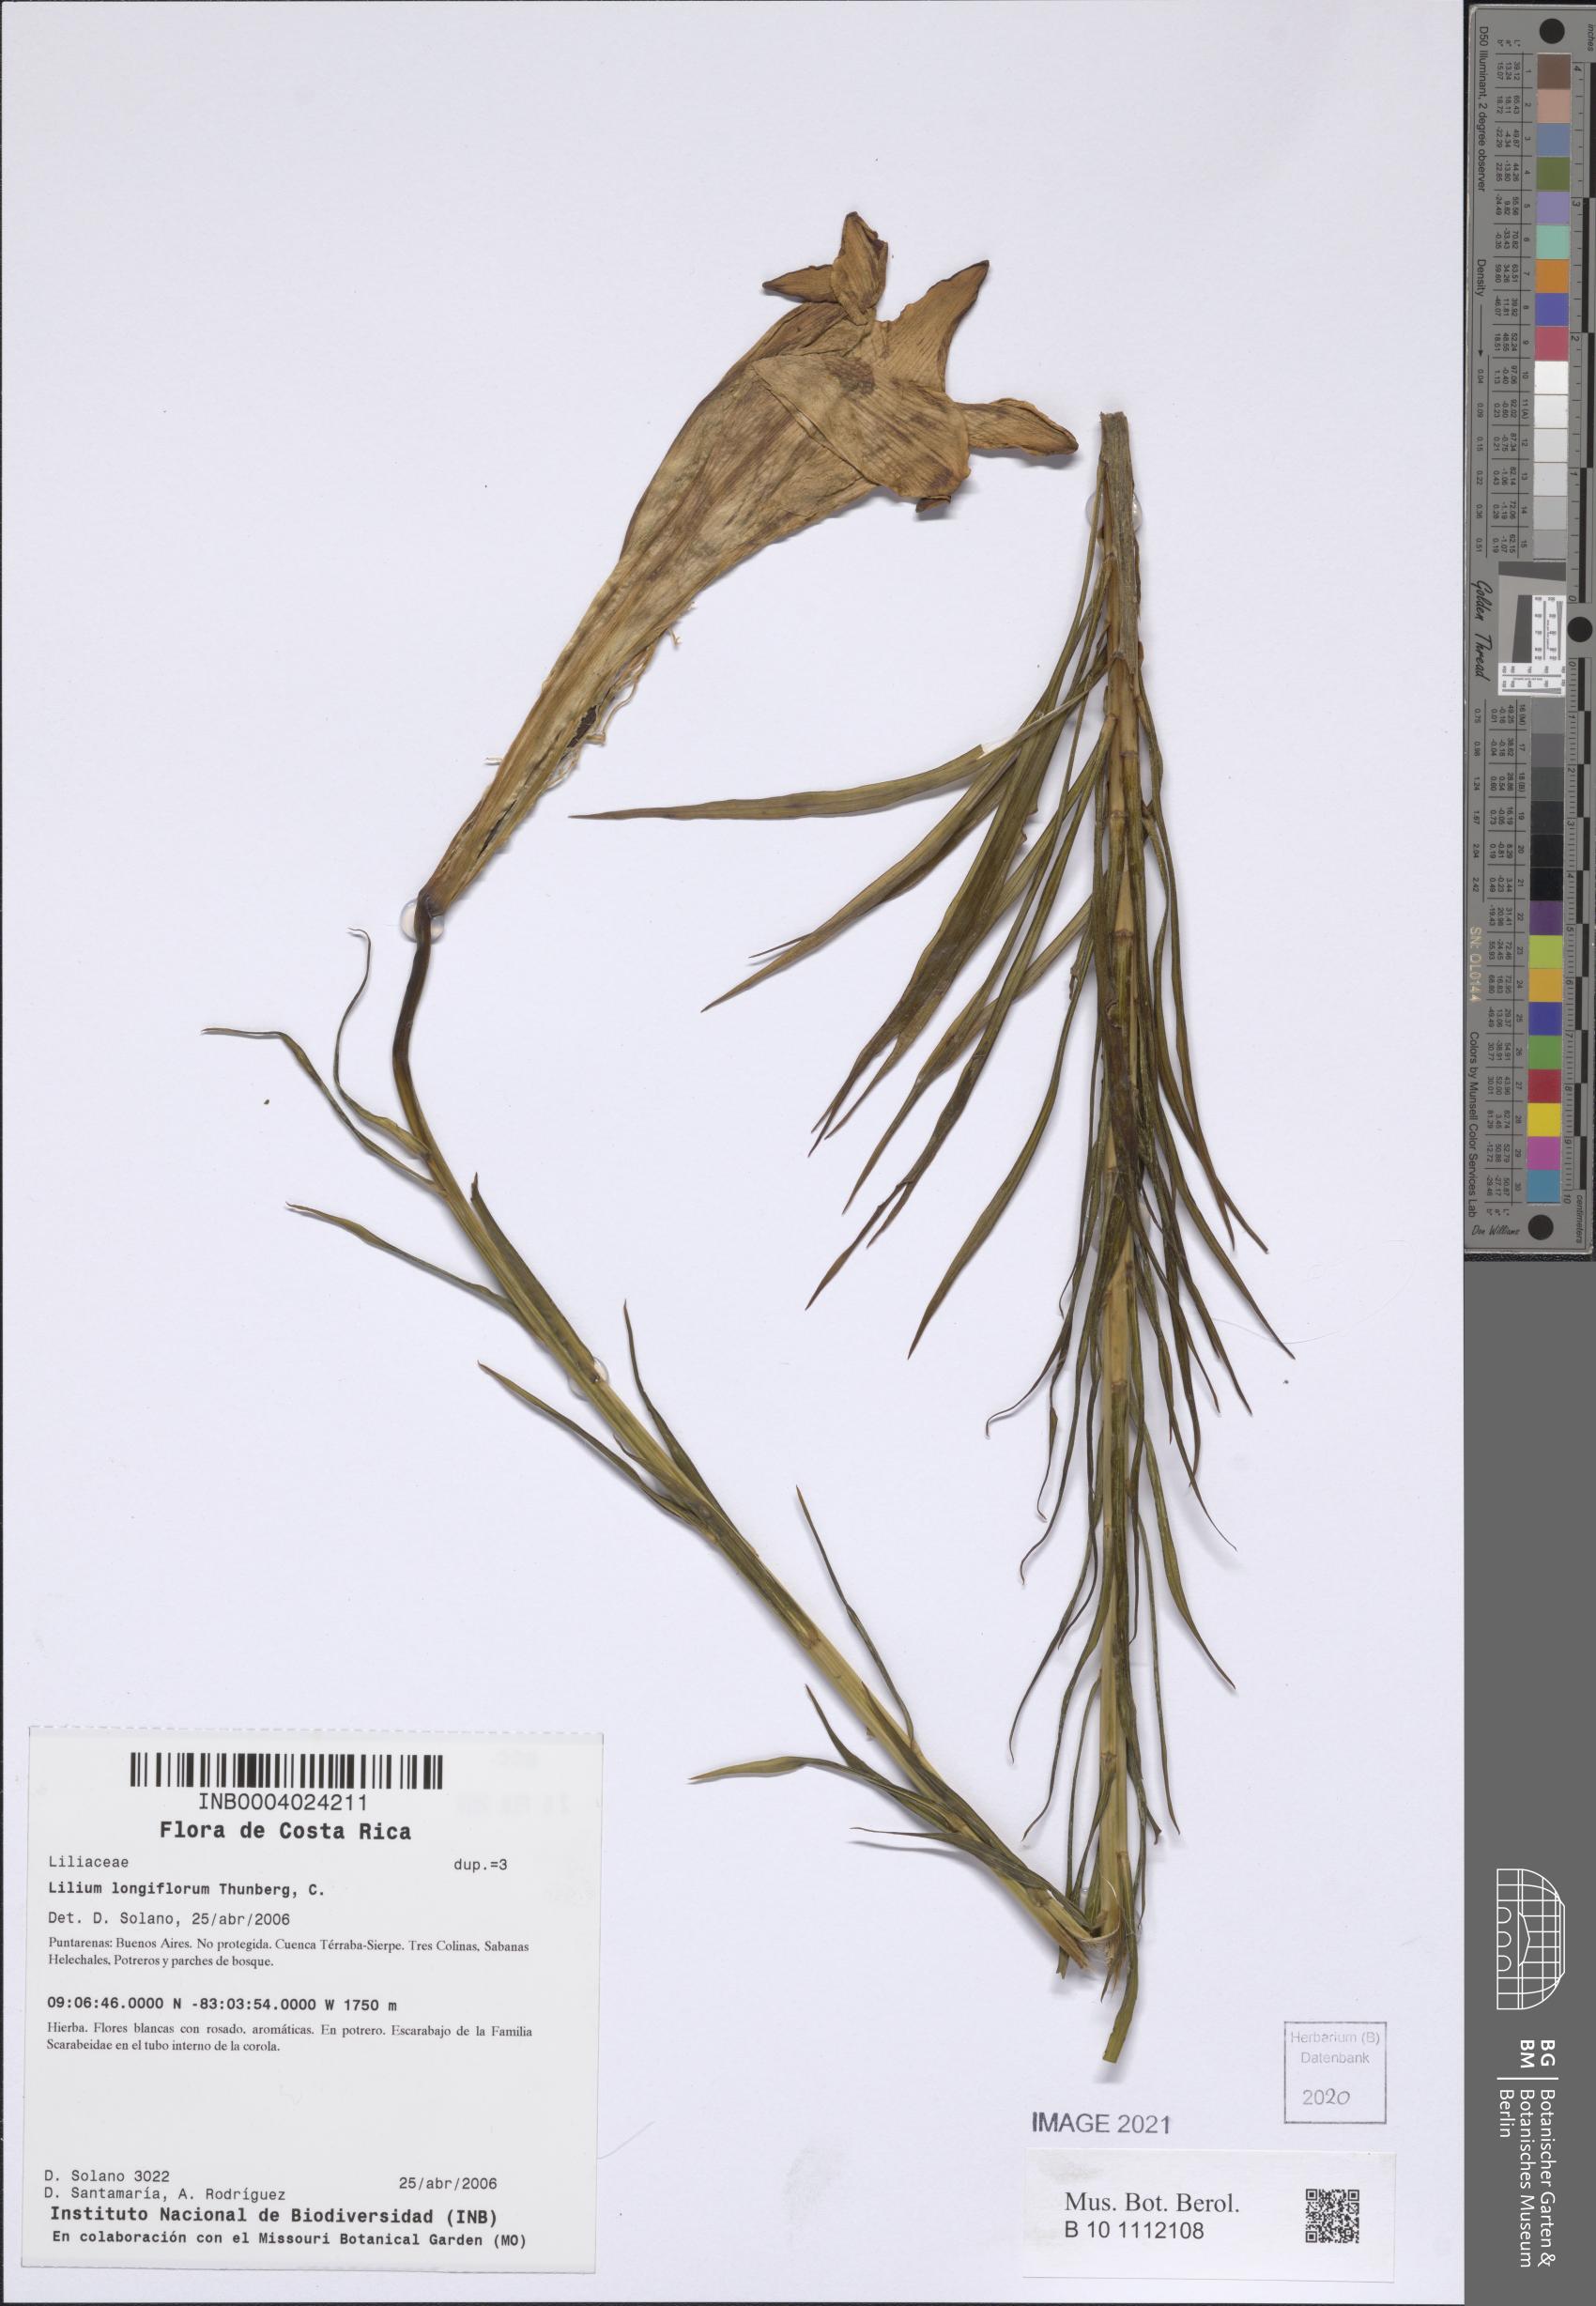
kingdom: Plantae
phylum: Tracheophyta
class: Liliopsida
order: Liliales
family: Liliaceae
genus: Lilium
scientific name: Lilium wallichianum
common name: Wallich's lily
